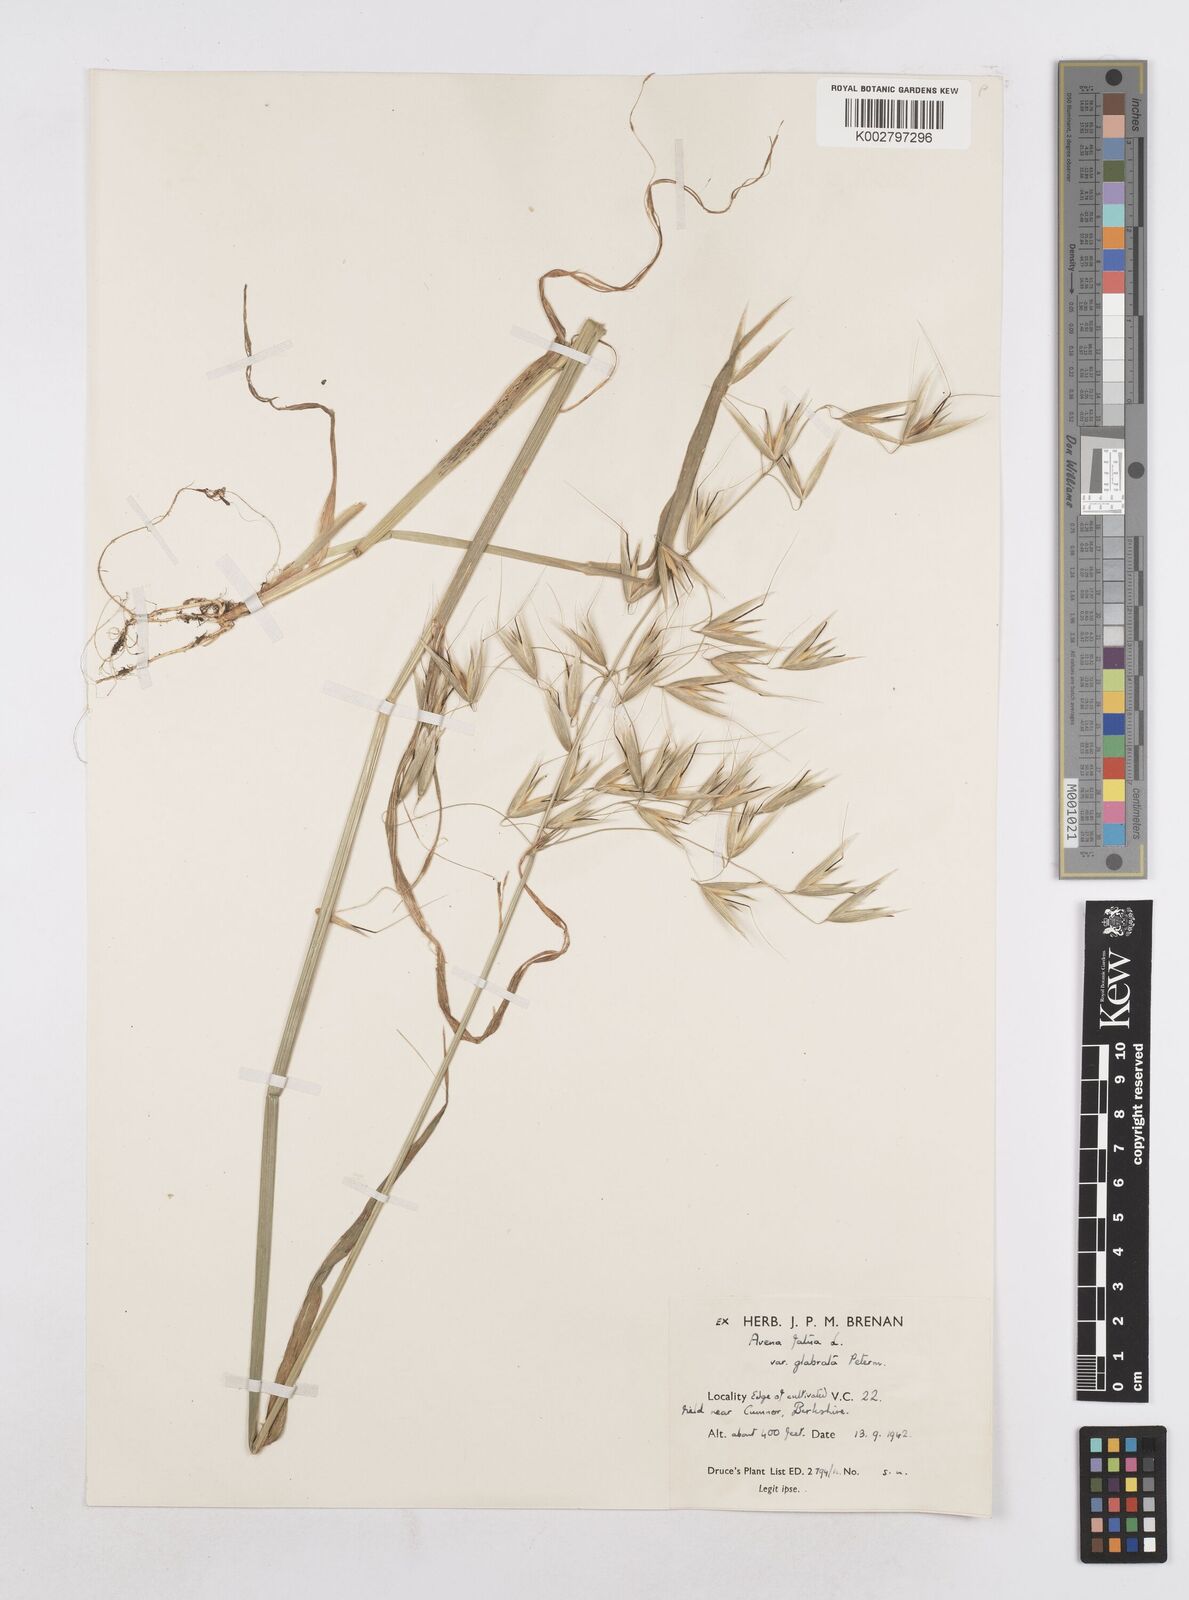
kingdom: Plantae
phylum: Tracheophyta
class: Liliopsida
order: Poales
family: Poaceae
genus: Avena
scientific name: Avena fatua
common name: Wild oat
